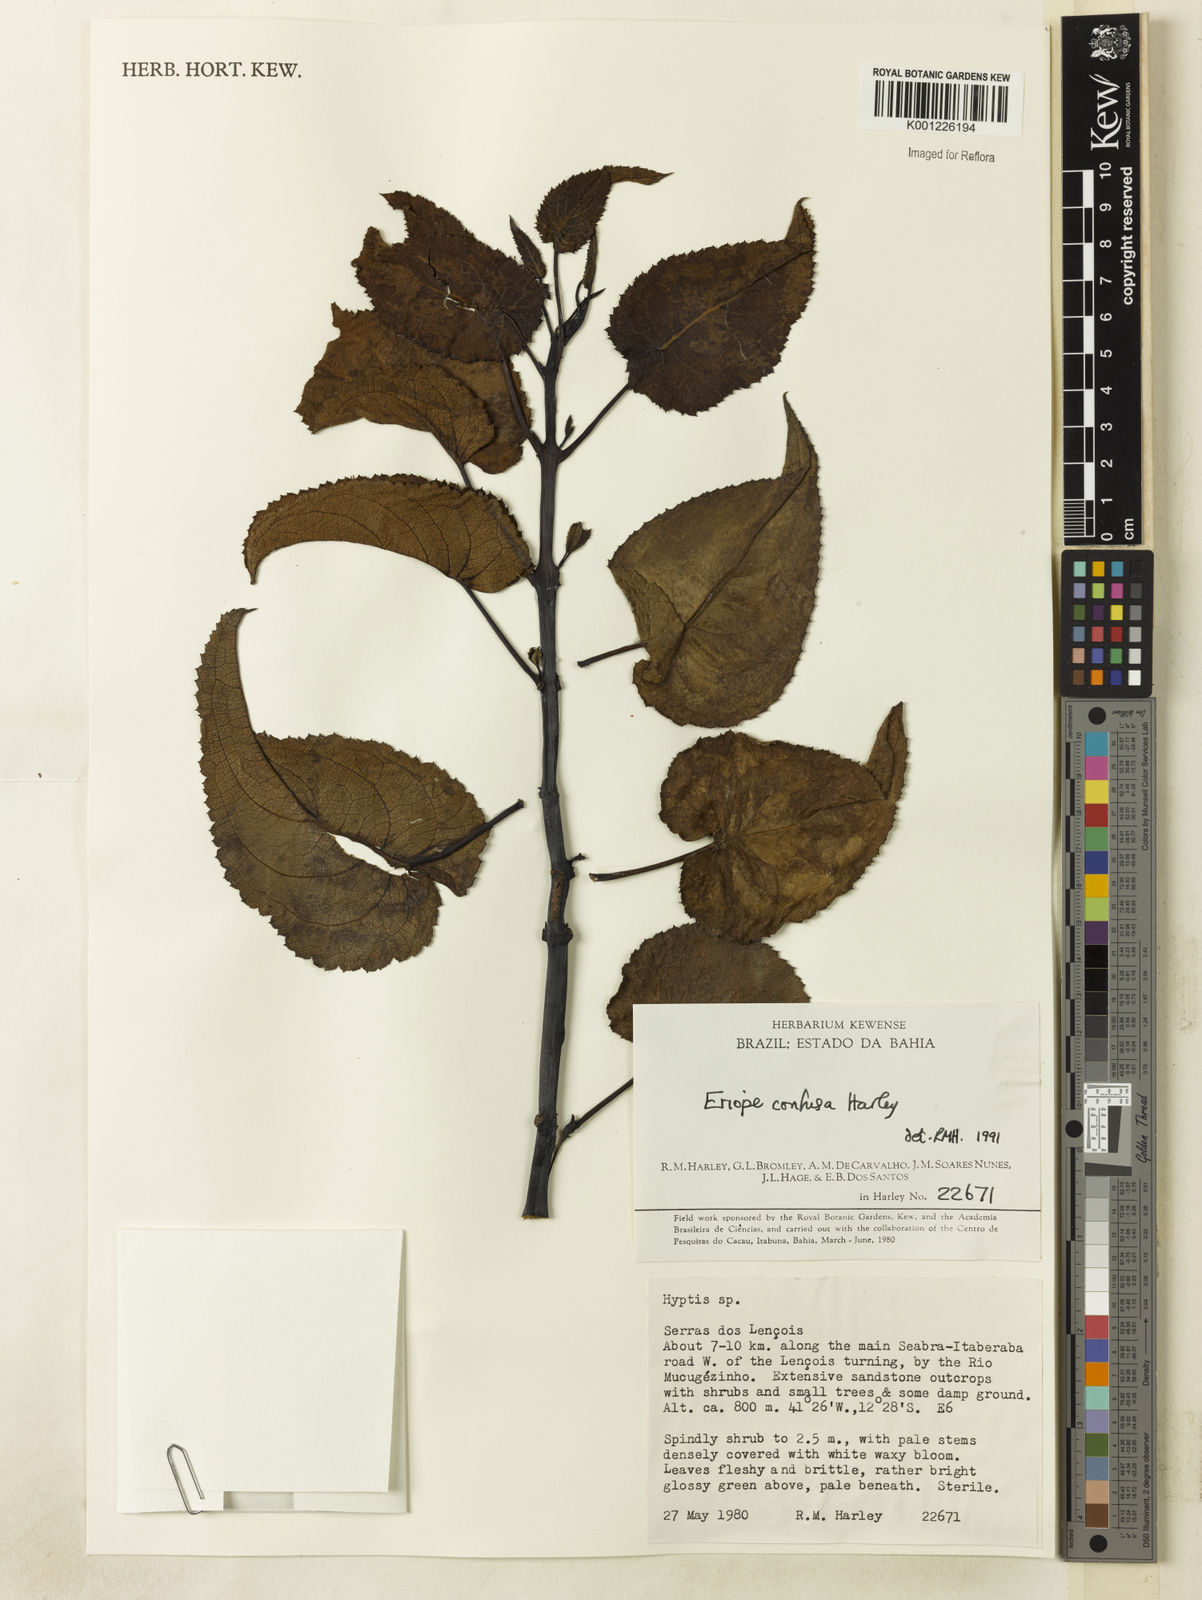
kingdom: Plantae
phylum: Tracheophyta
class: Magnoliopsida
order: Lamiales
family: Lamiaceae
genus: Eriope
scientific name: Eriope confusa
